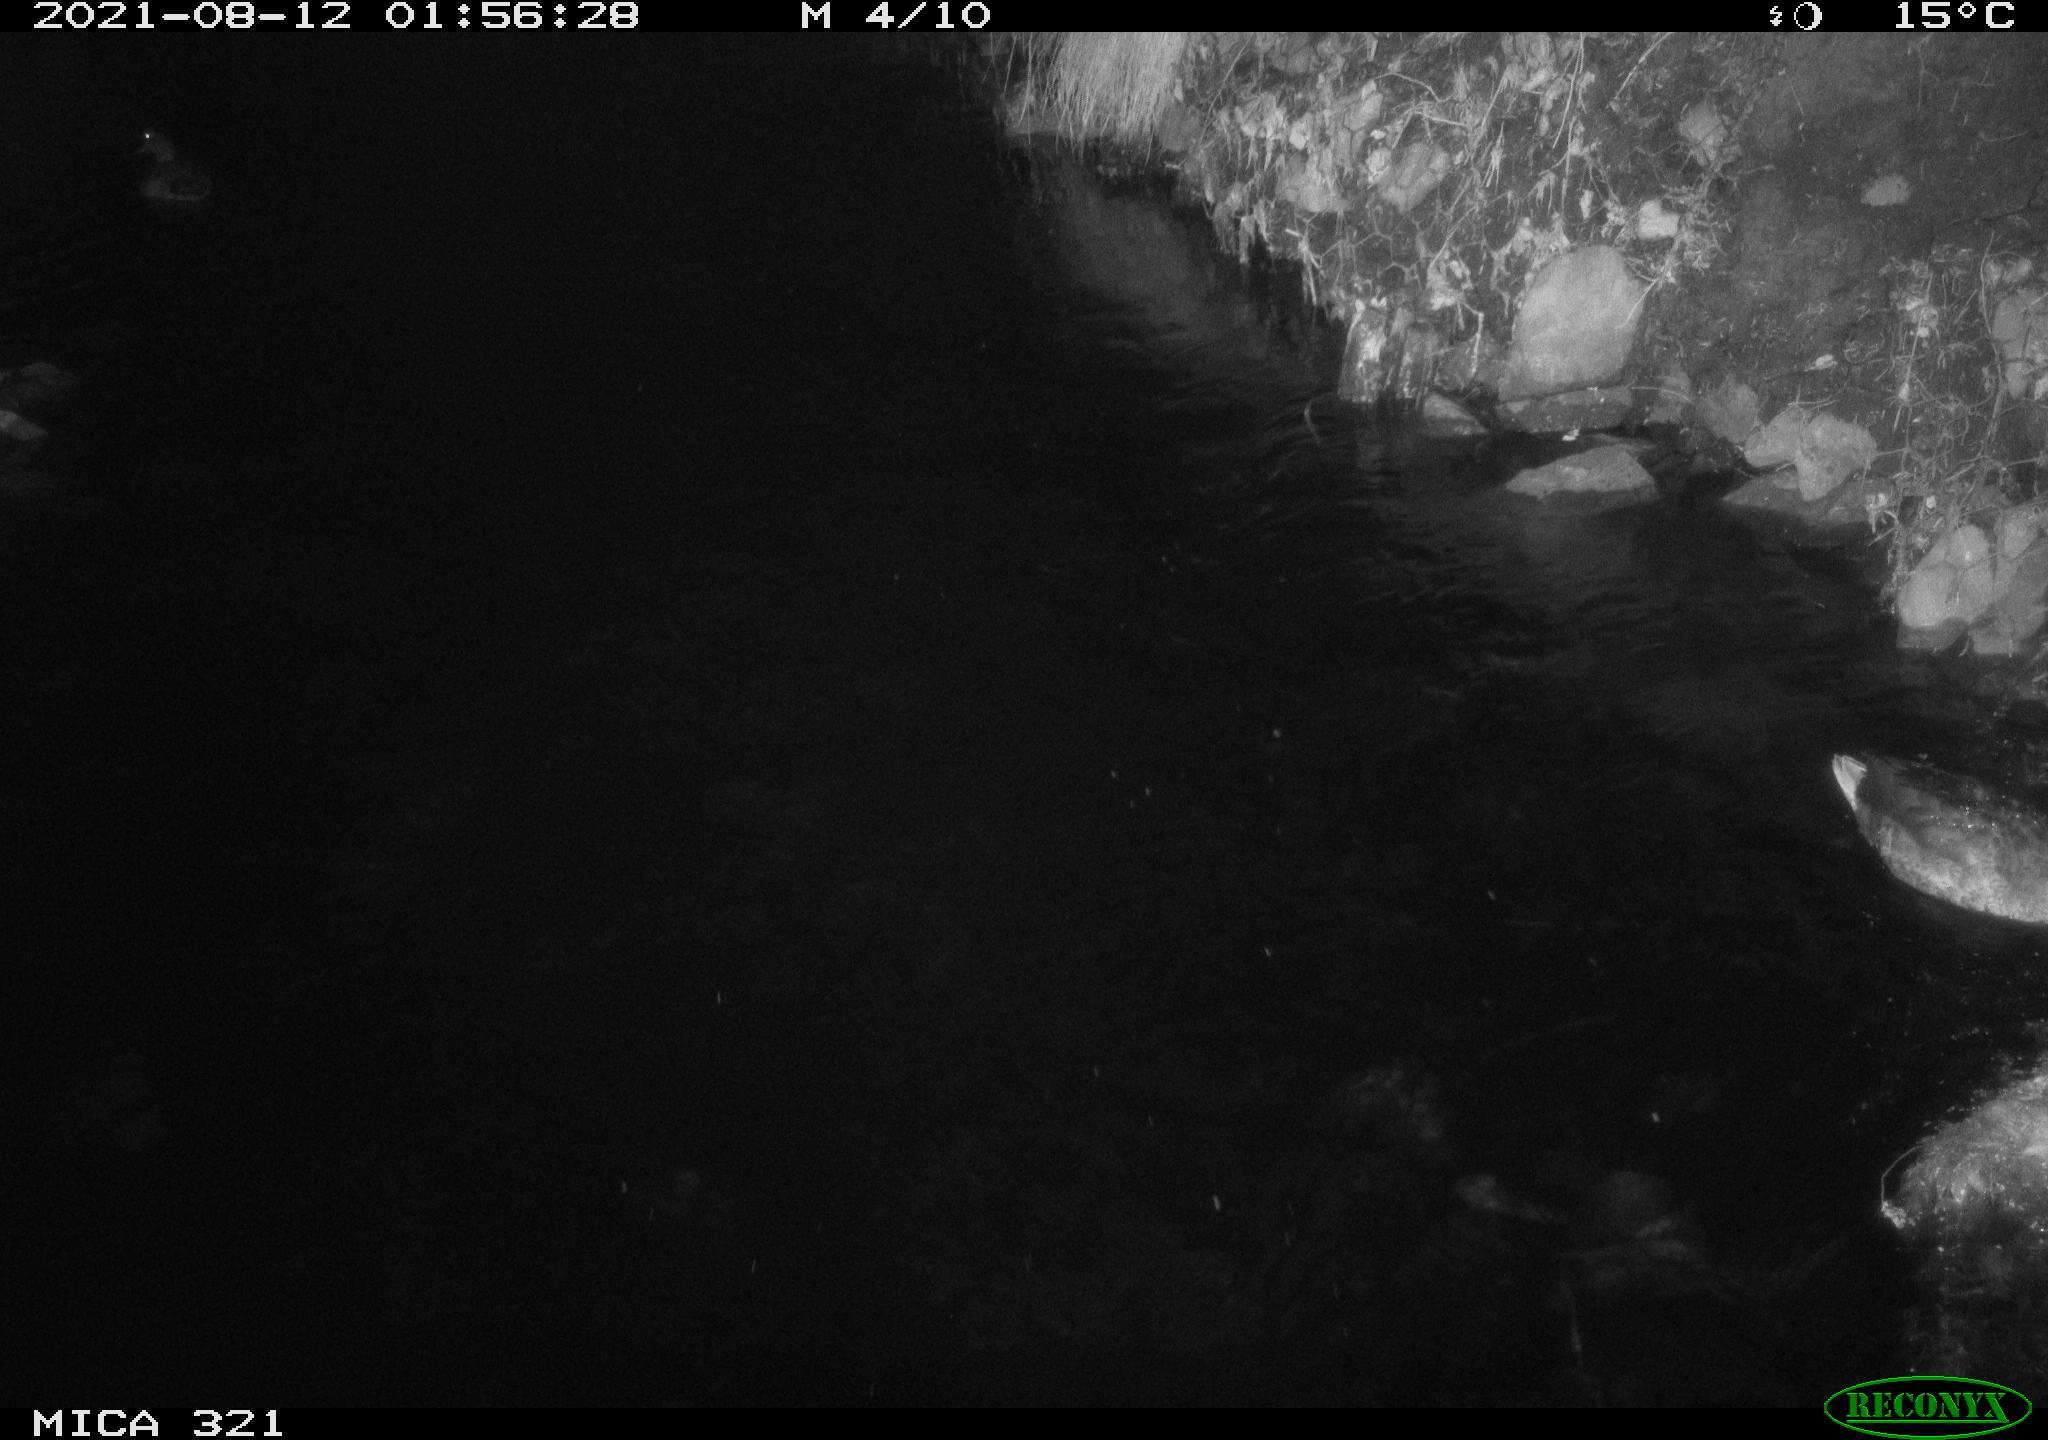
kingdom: Animalia
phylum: Chordata
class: Aves
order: Anseriformes
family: Anatidae
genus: Anas
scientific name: Anas platyrhynchos
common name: Mallard
